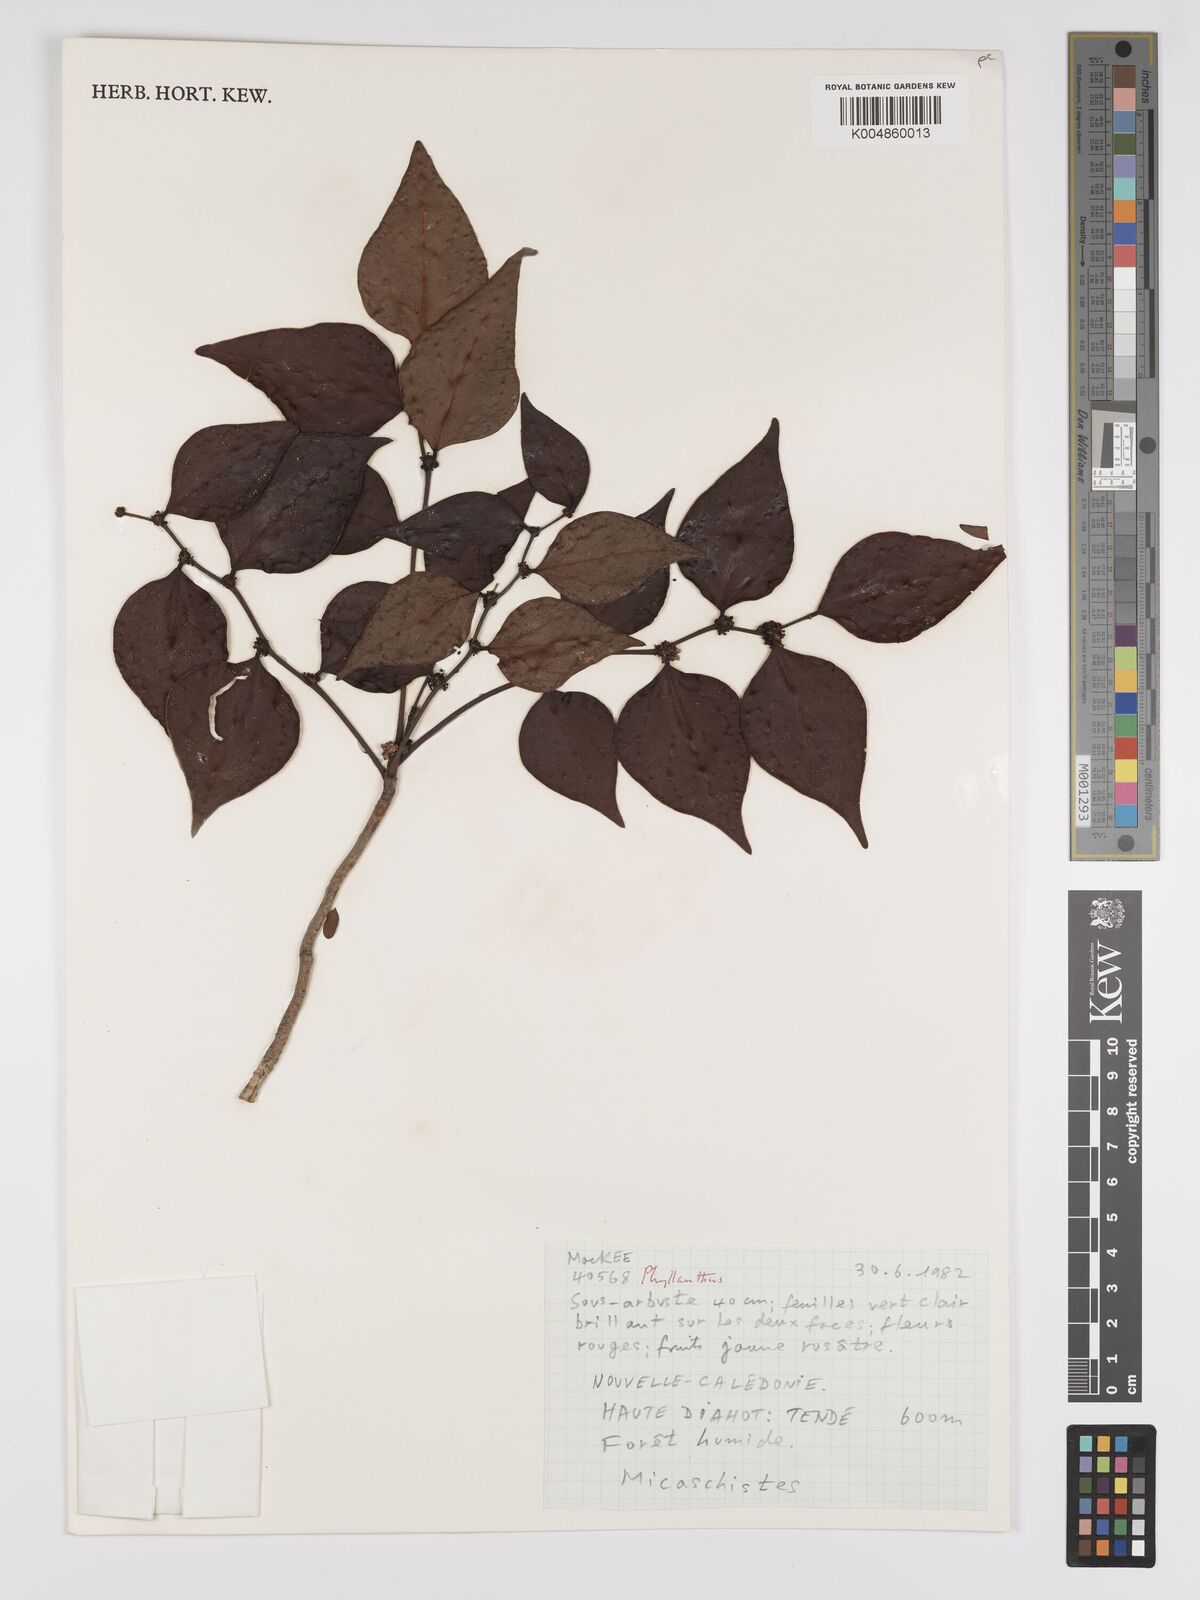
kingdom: Plantae
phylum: Tracheophyta
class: Magnoliopsida
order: Malpighiales
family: Phyllanthaceae
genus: Phyllanthus
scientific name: Phyllanthus
